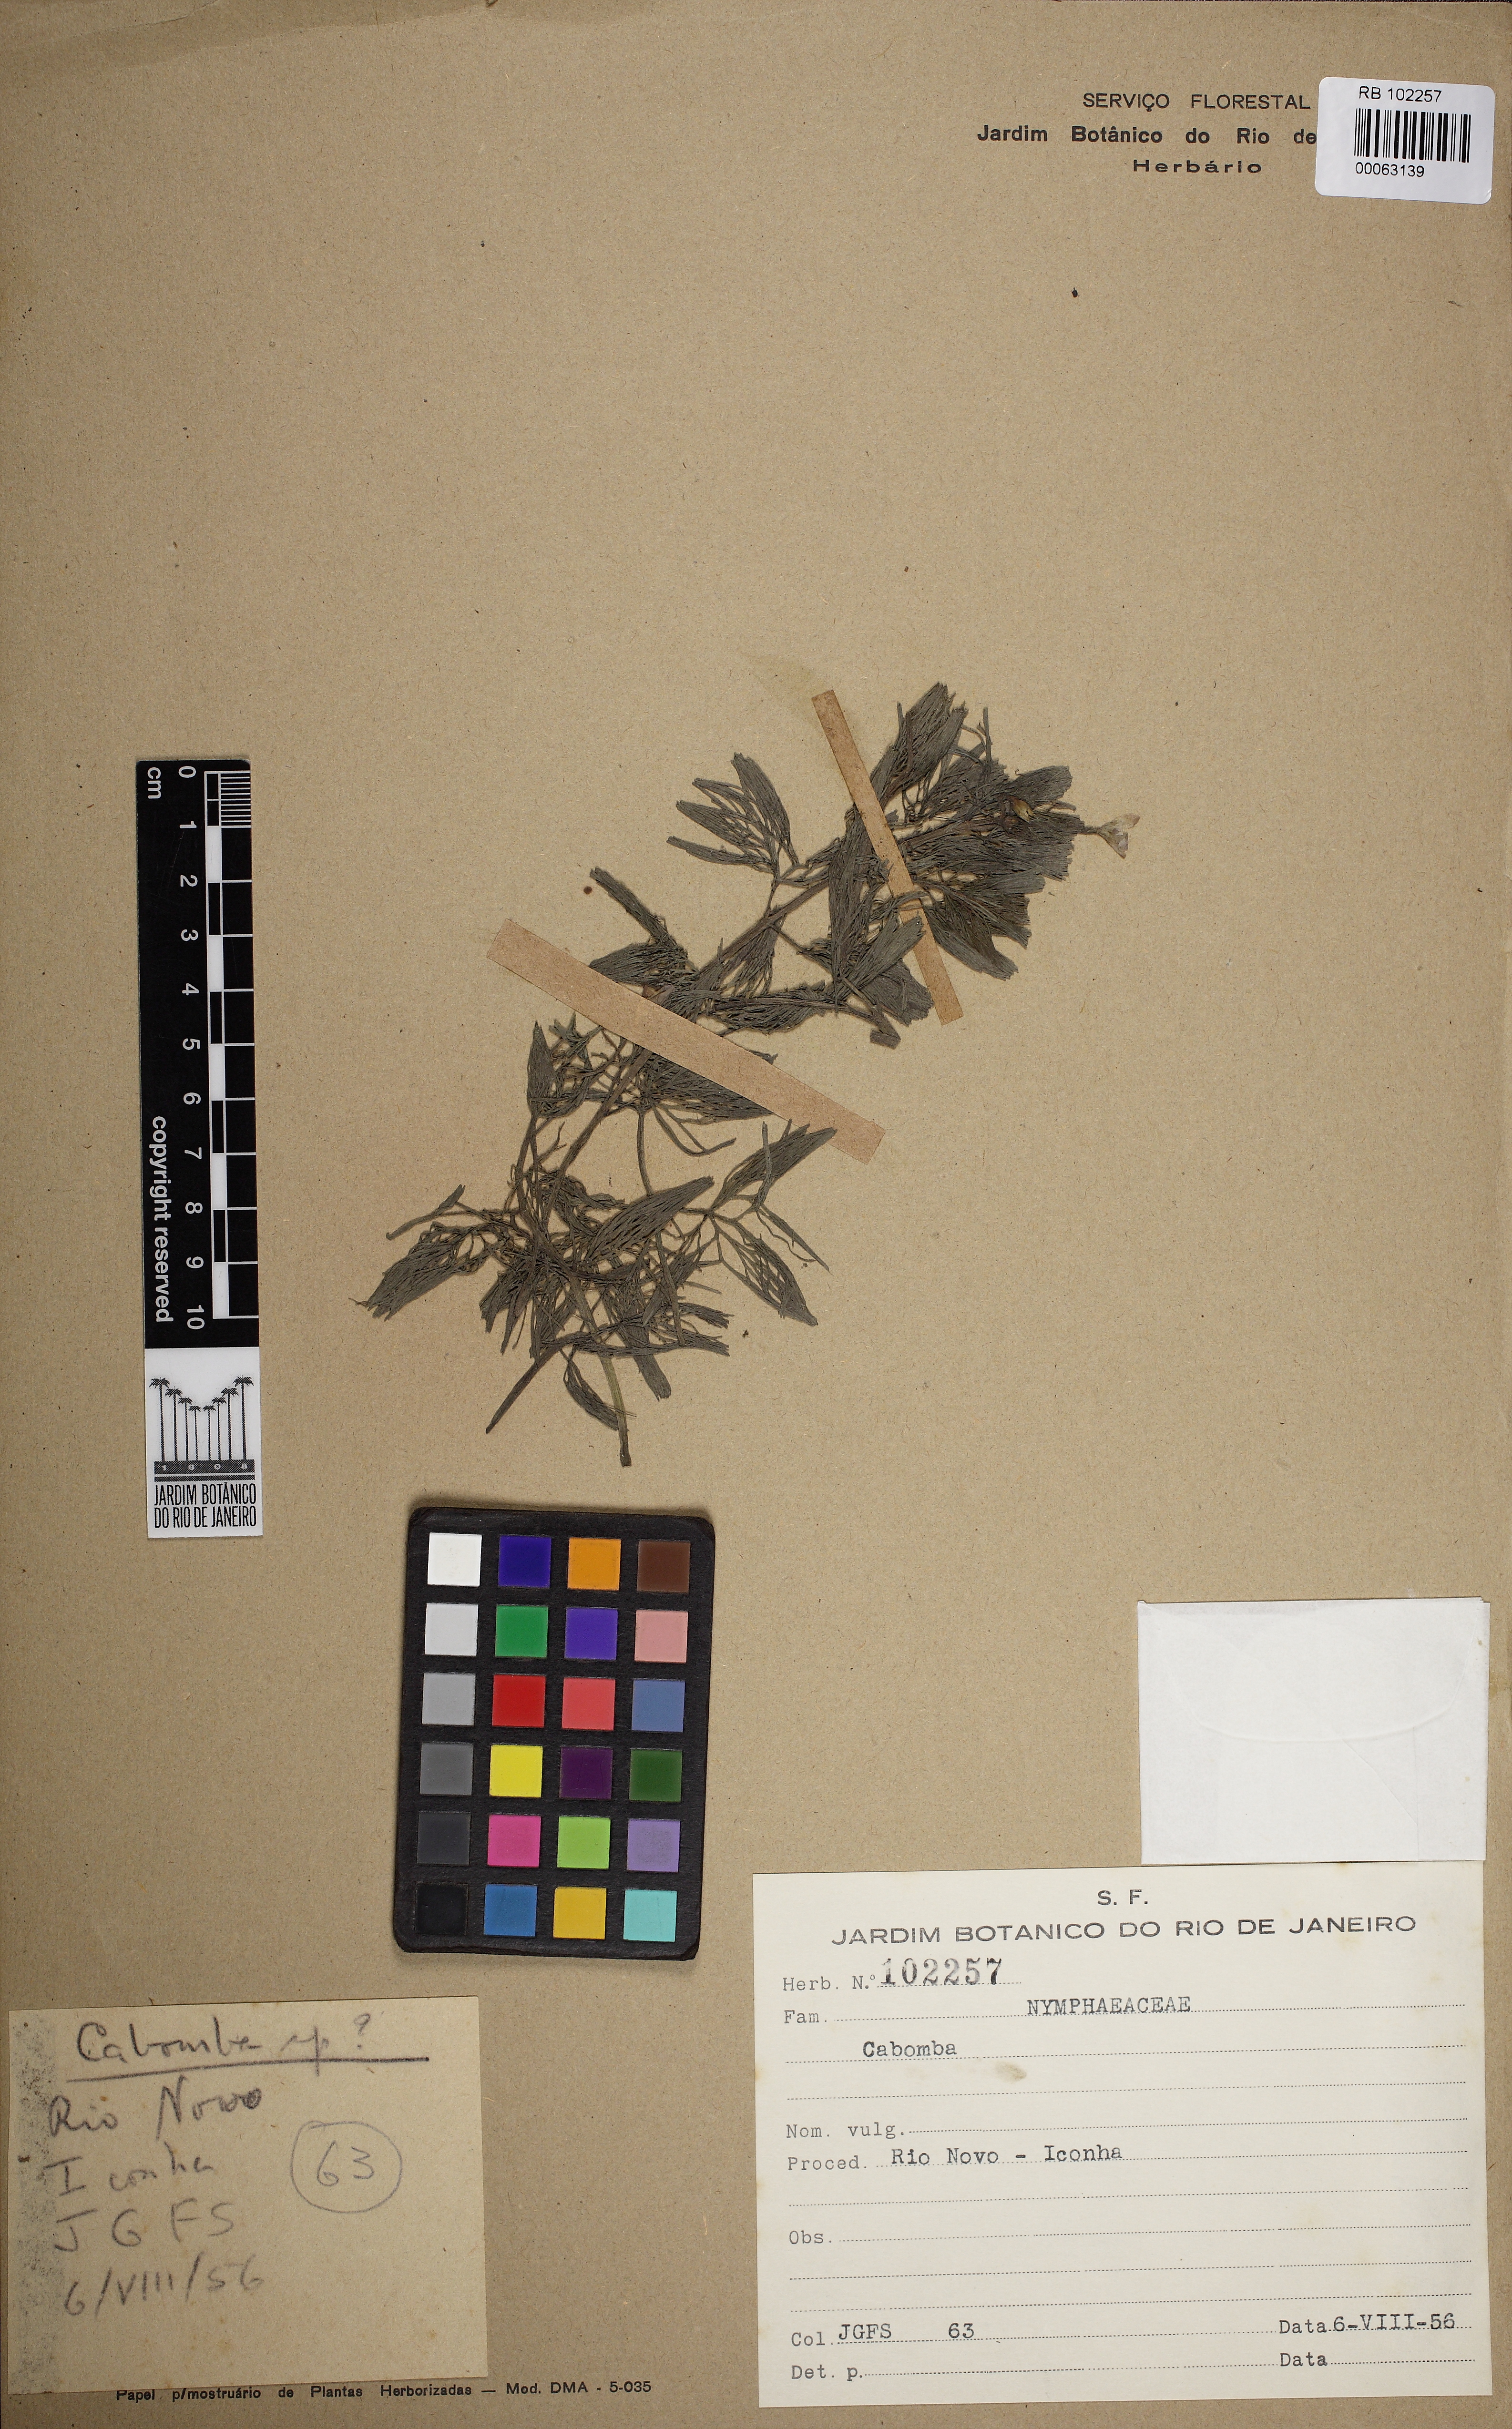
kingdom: Plantae
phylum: Tracheophyta
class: Magnoliopsida
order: Nymphaeales
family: Cabombaceae
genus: Cabomba
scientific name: Cabomba
